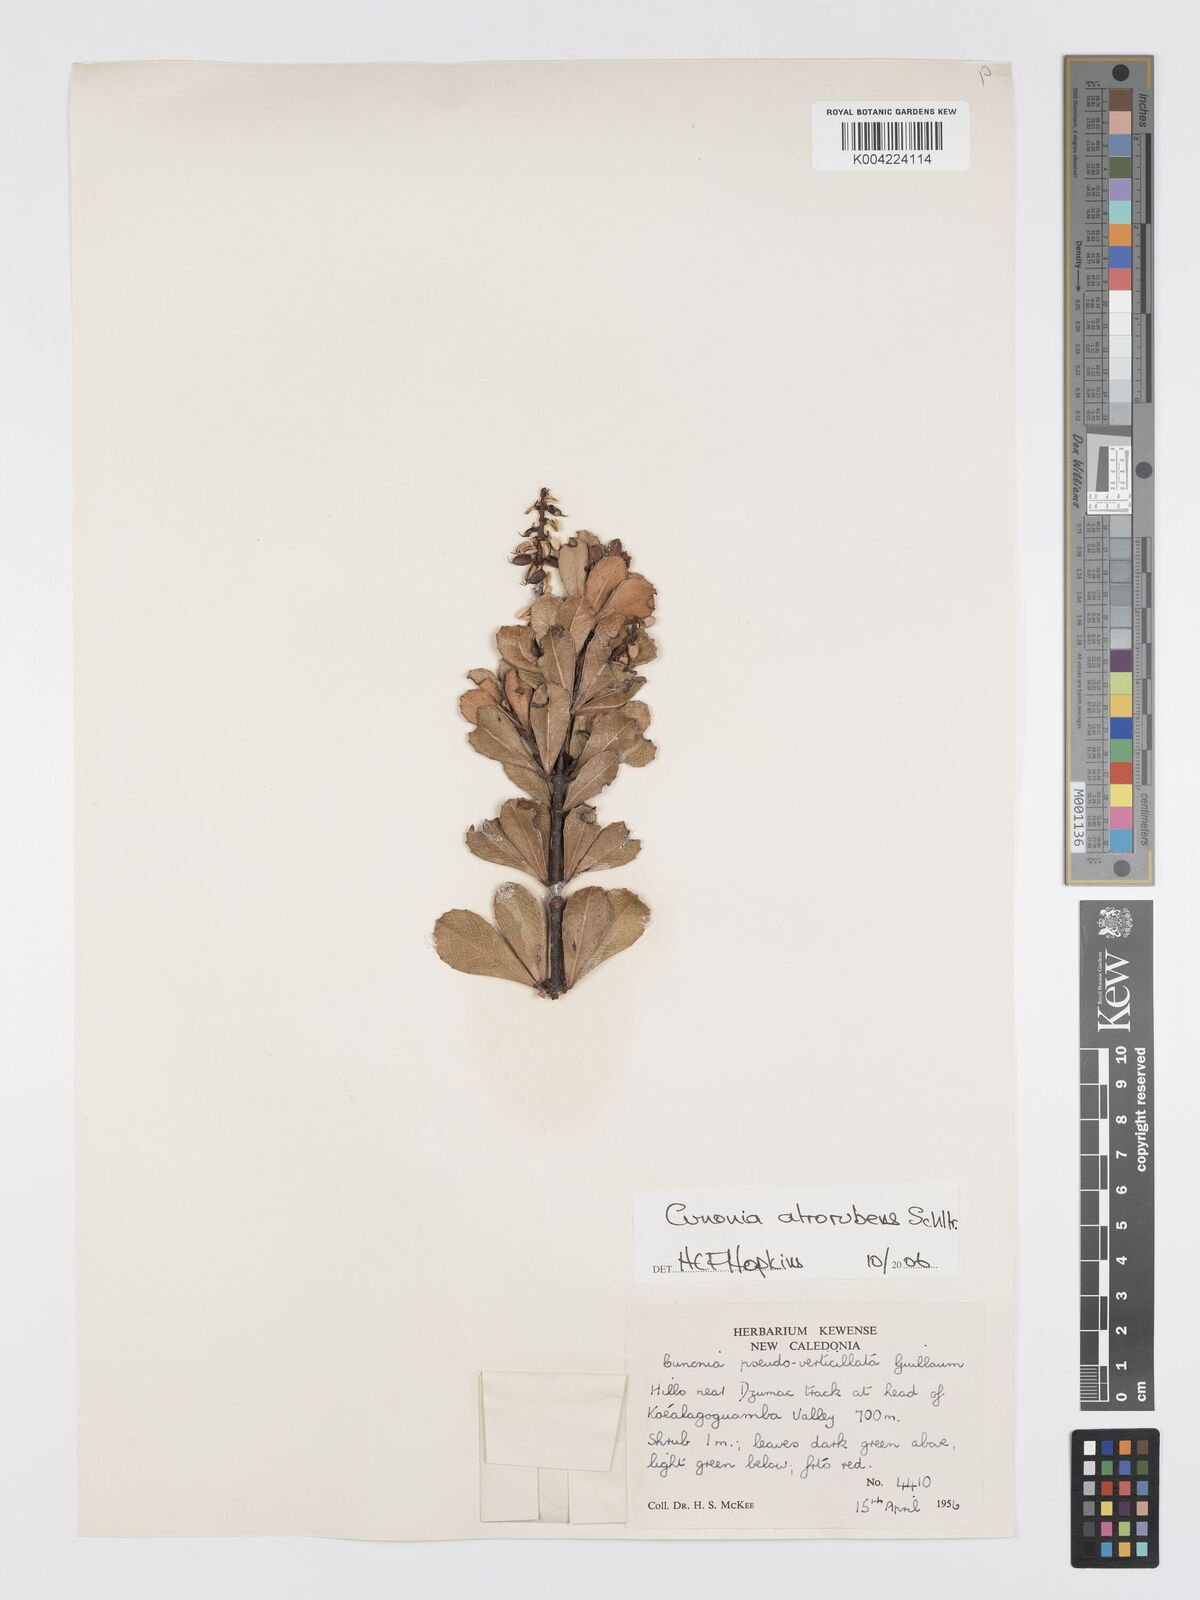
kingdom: Plantae
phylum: Tracheophyta
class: Magnoliopsida
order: Oxalidales
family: Cunoniaceae
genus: Cunonia
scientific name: Cunonia atrorubens
